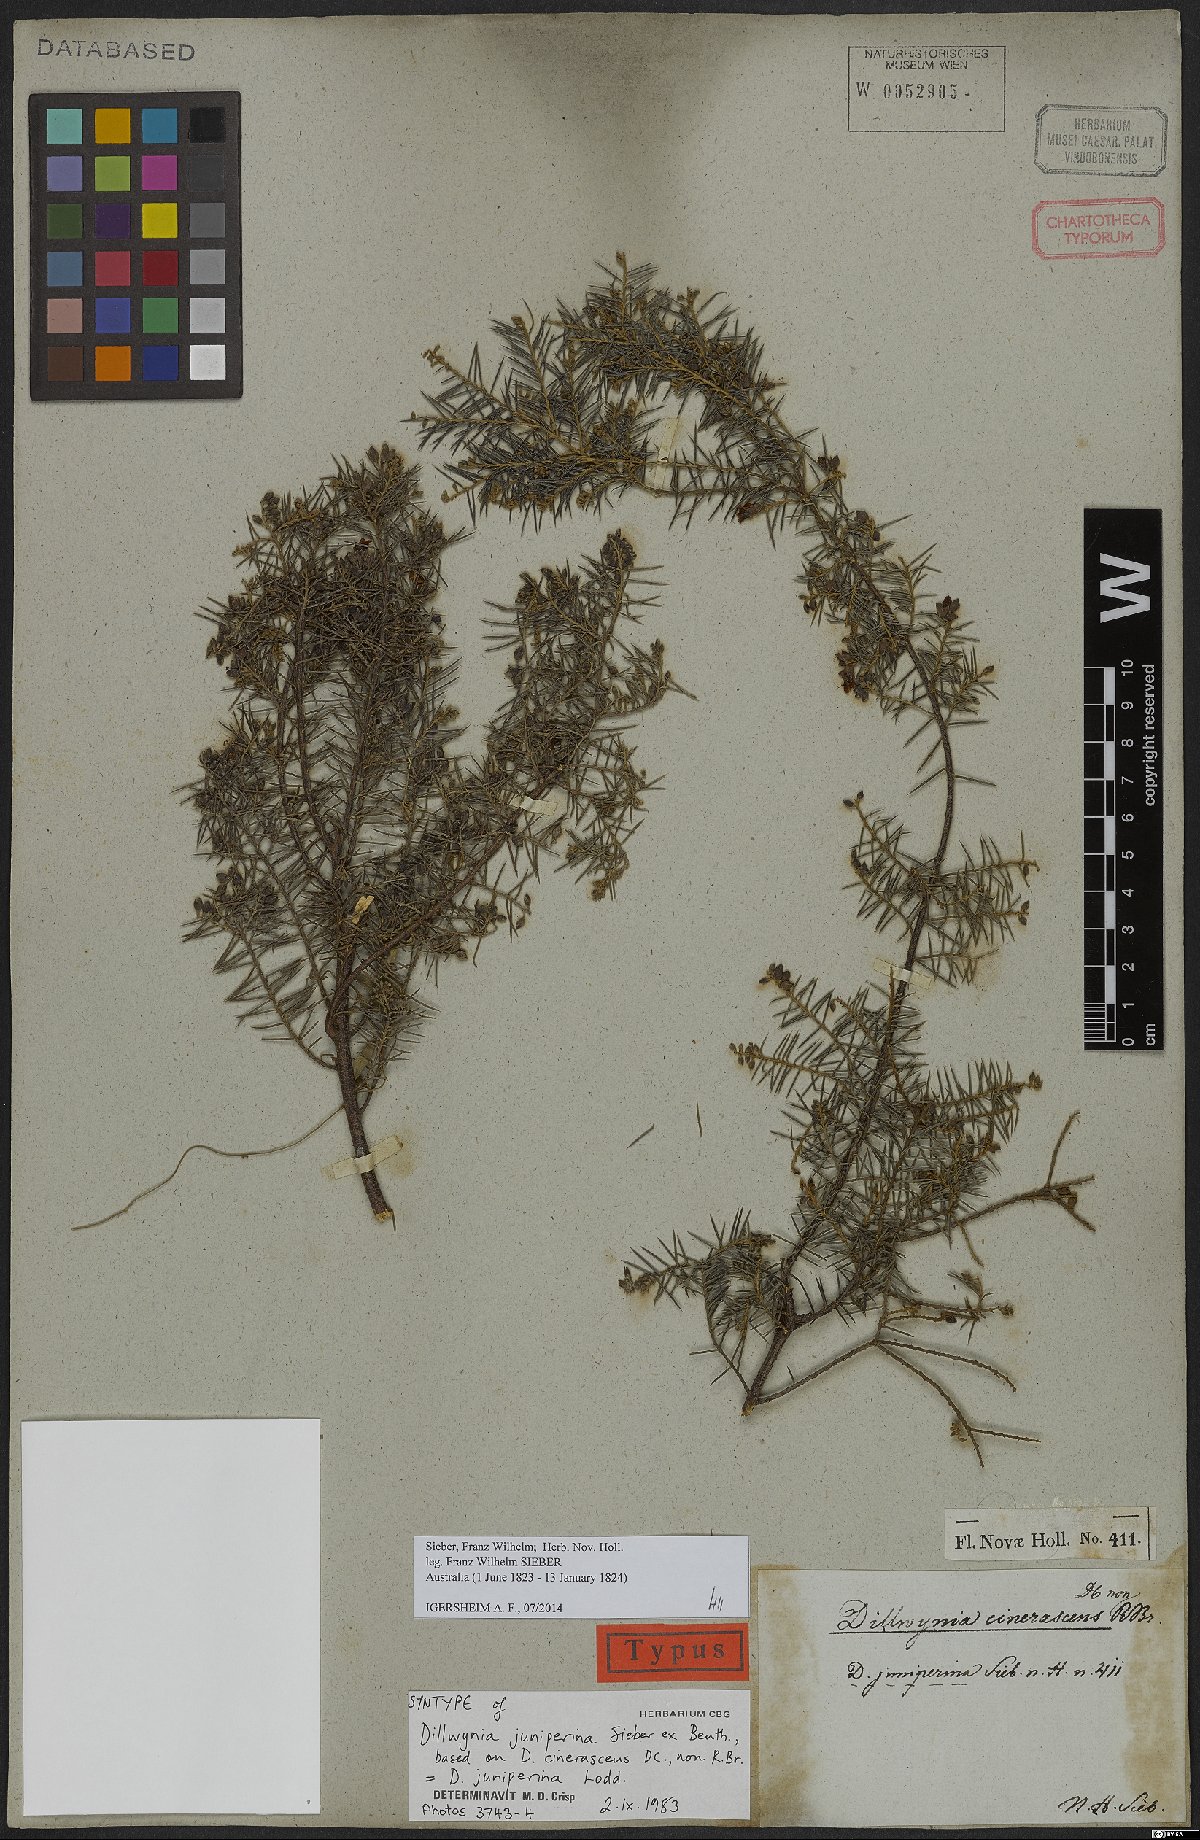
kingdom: Plantae
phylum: Tracheophyta
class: Magnoliopsida
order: Fabales
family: Fabaceae
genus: Dillwynia
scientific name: Dillwynia juniperina
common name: Prickly parrot pea
